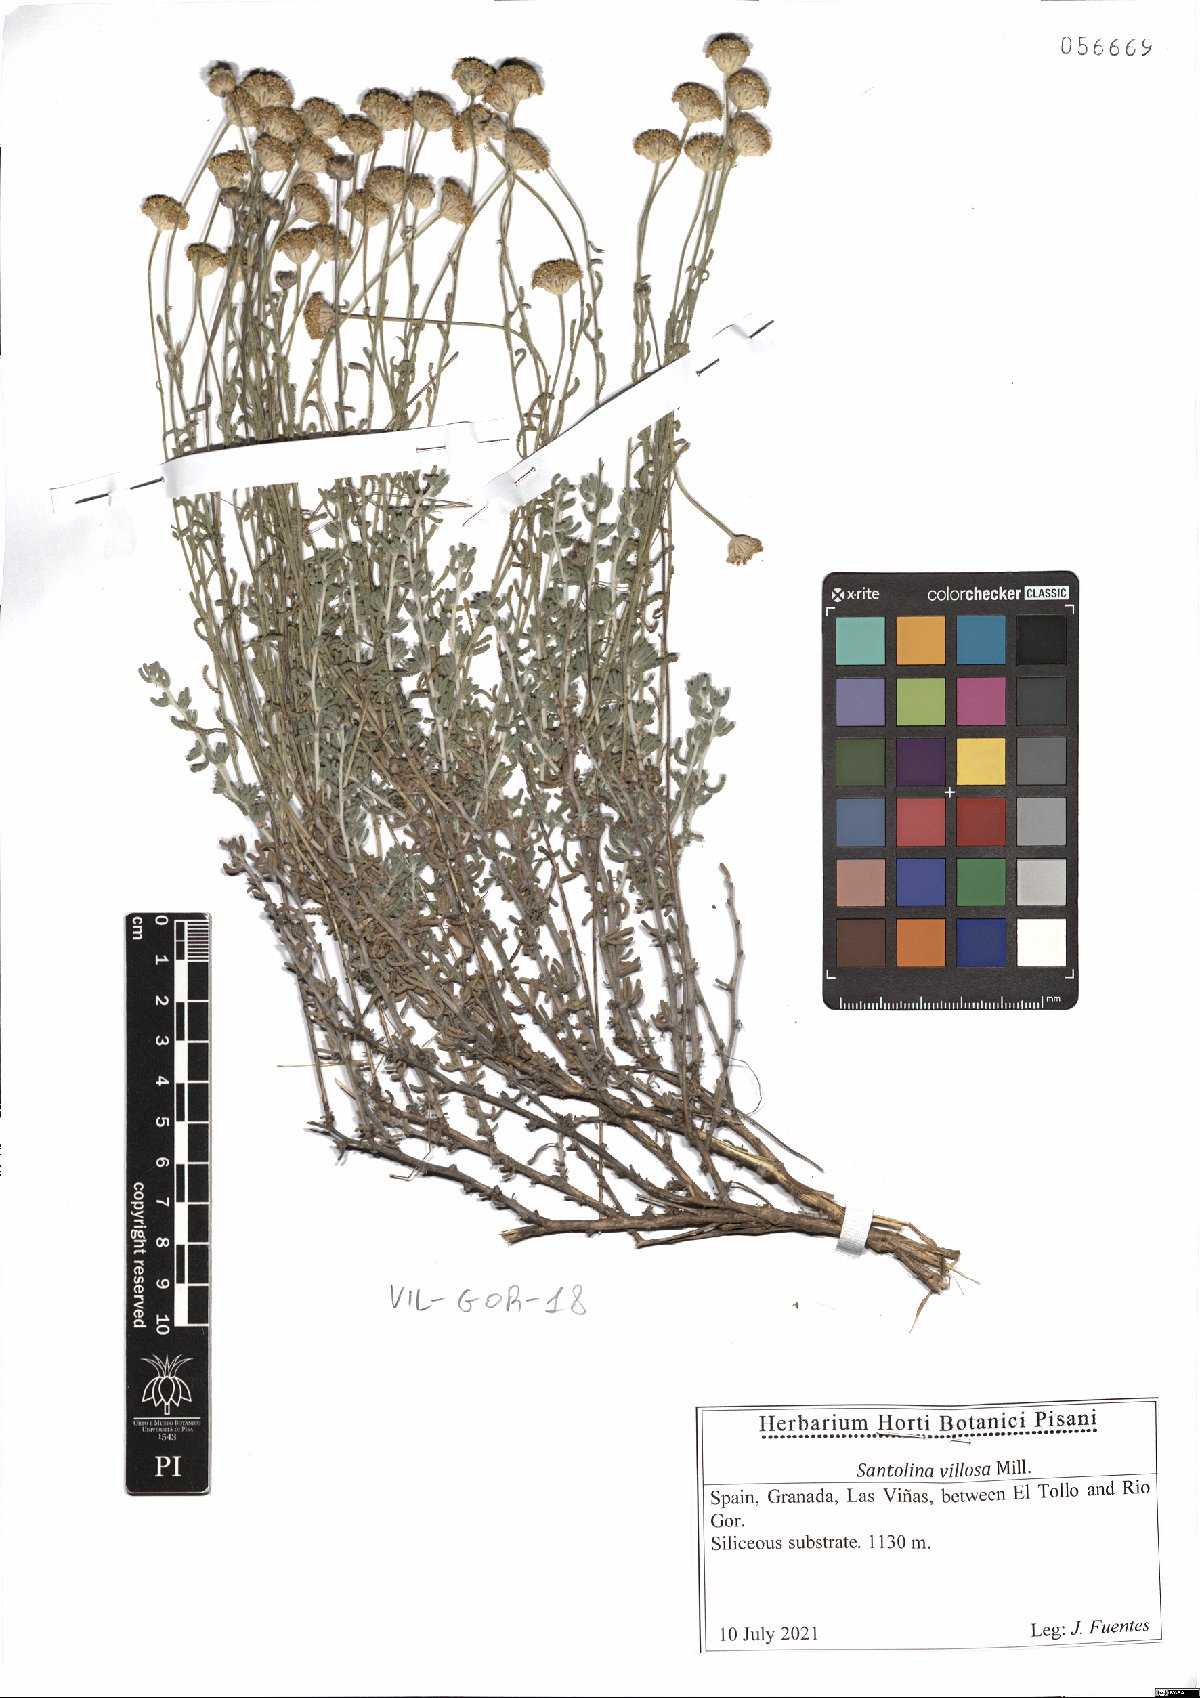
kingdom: Plantae
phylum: Tracheophyta
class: Magnoliopsida
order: Asterales
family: Asteraceae
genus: Santolina
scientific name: Santolina chamaecyparissus
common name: Lavender-cotton
